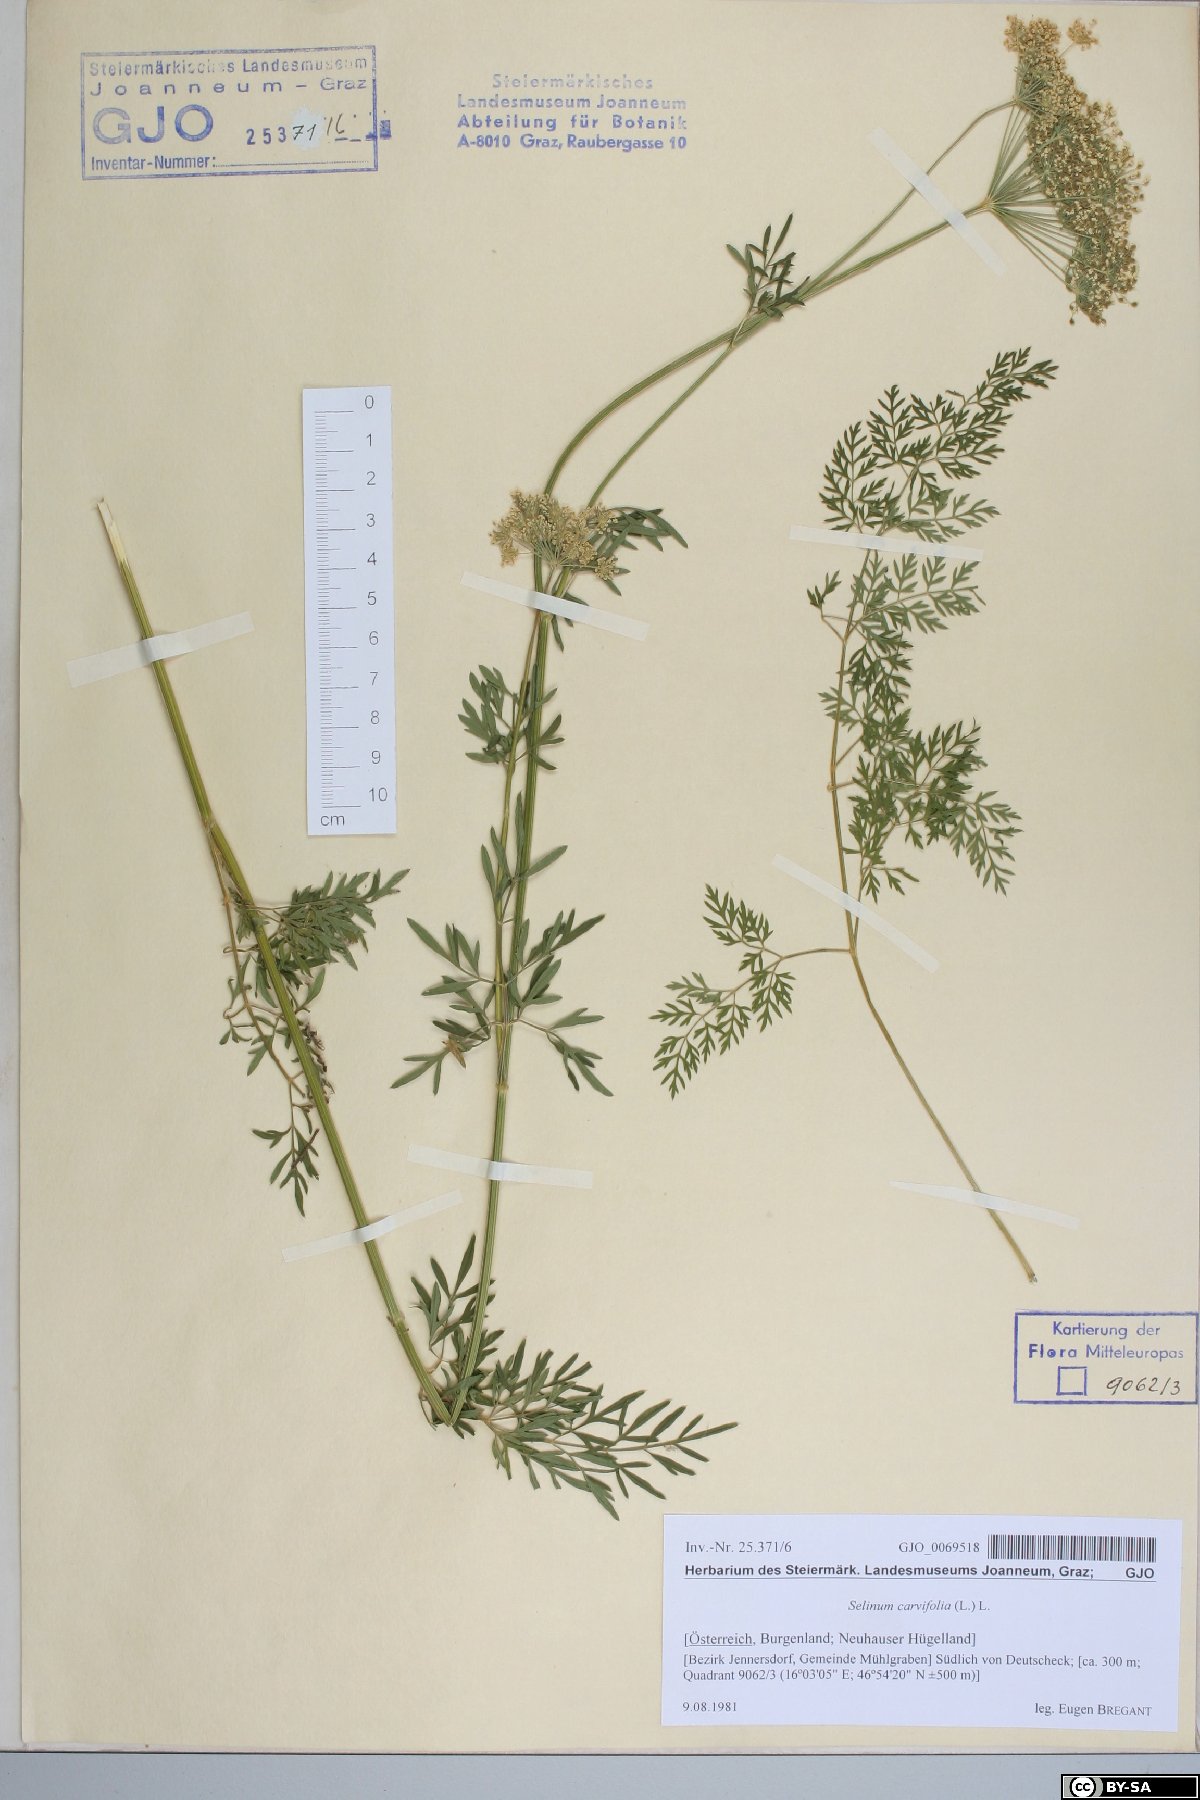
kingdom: Plantae
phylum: Tracheophyta
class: Magnoliopsida
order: Apiales
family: Apiaceae
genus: Selinum
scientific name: Selinum carvifolia
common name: Cambridge milk-parsley
